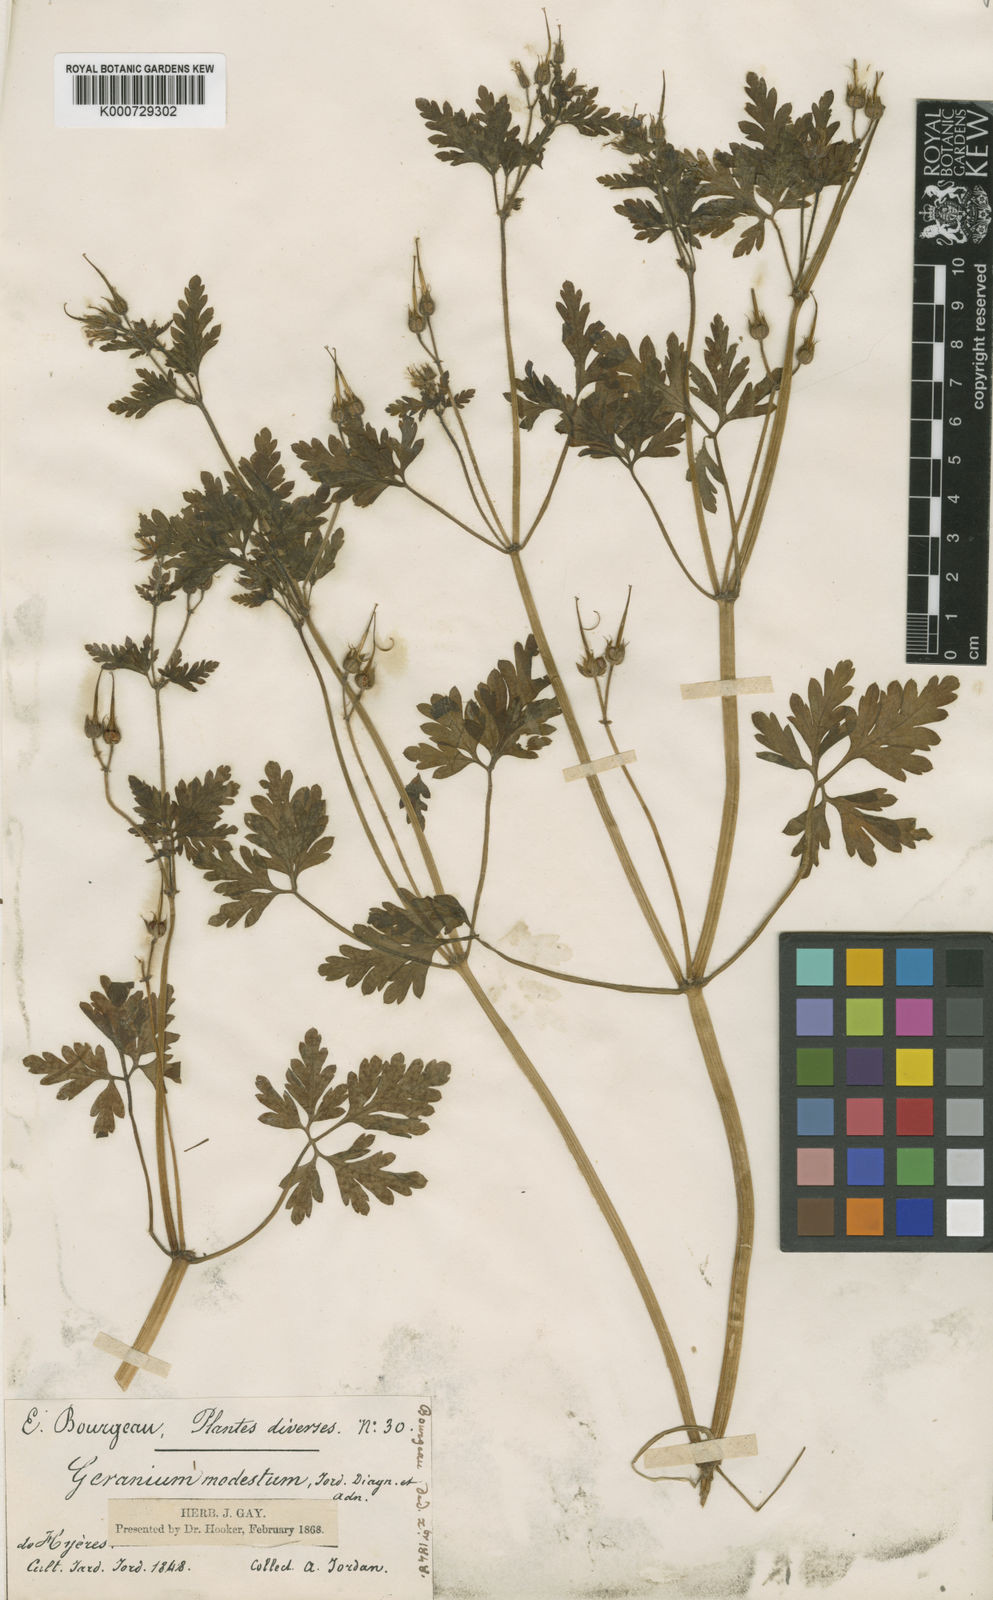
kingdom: Plantae
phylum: Tracheophyta
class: Magnoliopsida
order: Geraniales
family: Geraniaceae
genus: Geranium
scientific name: Geranium robertianum
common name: Herb-robert
